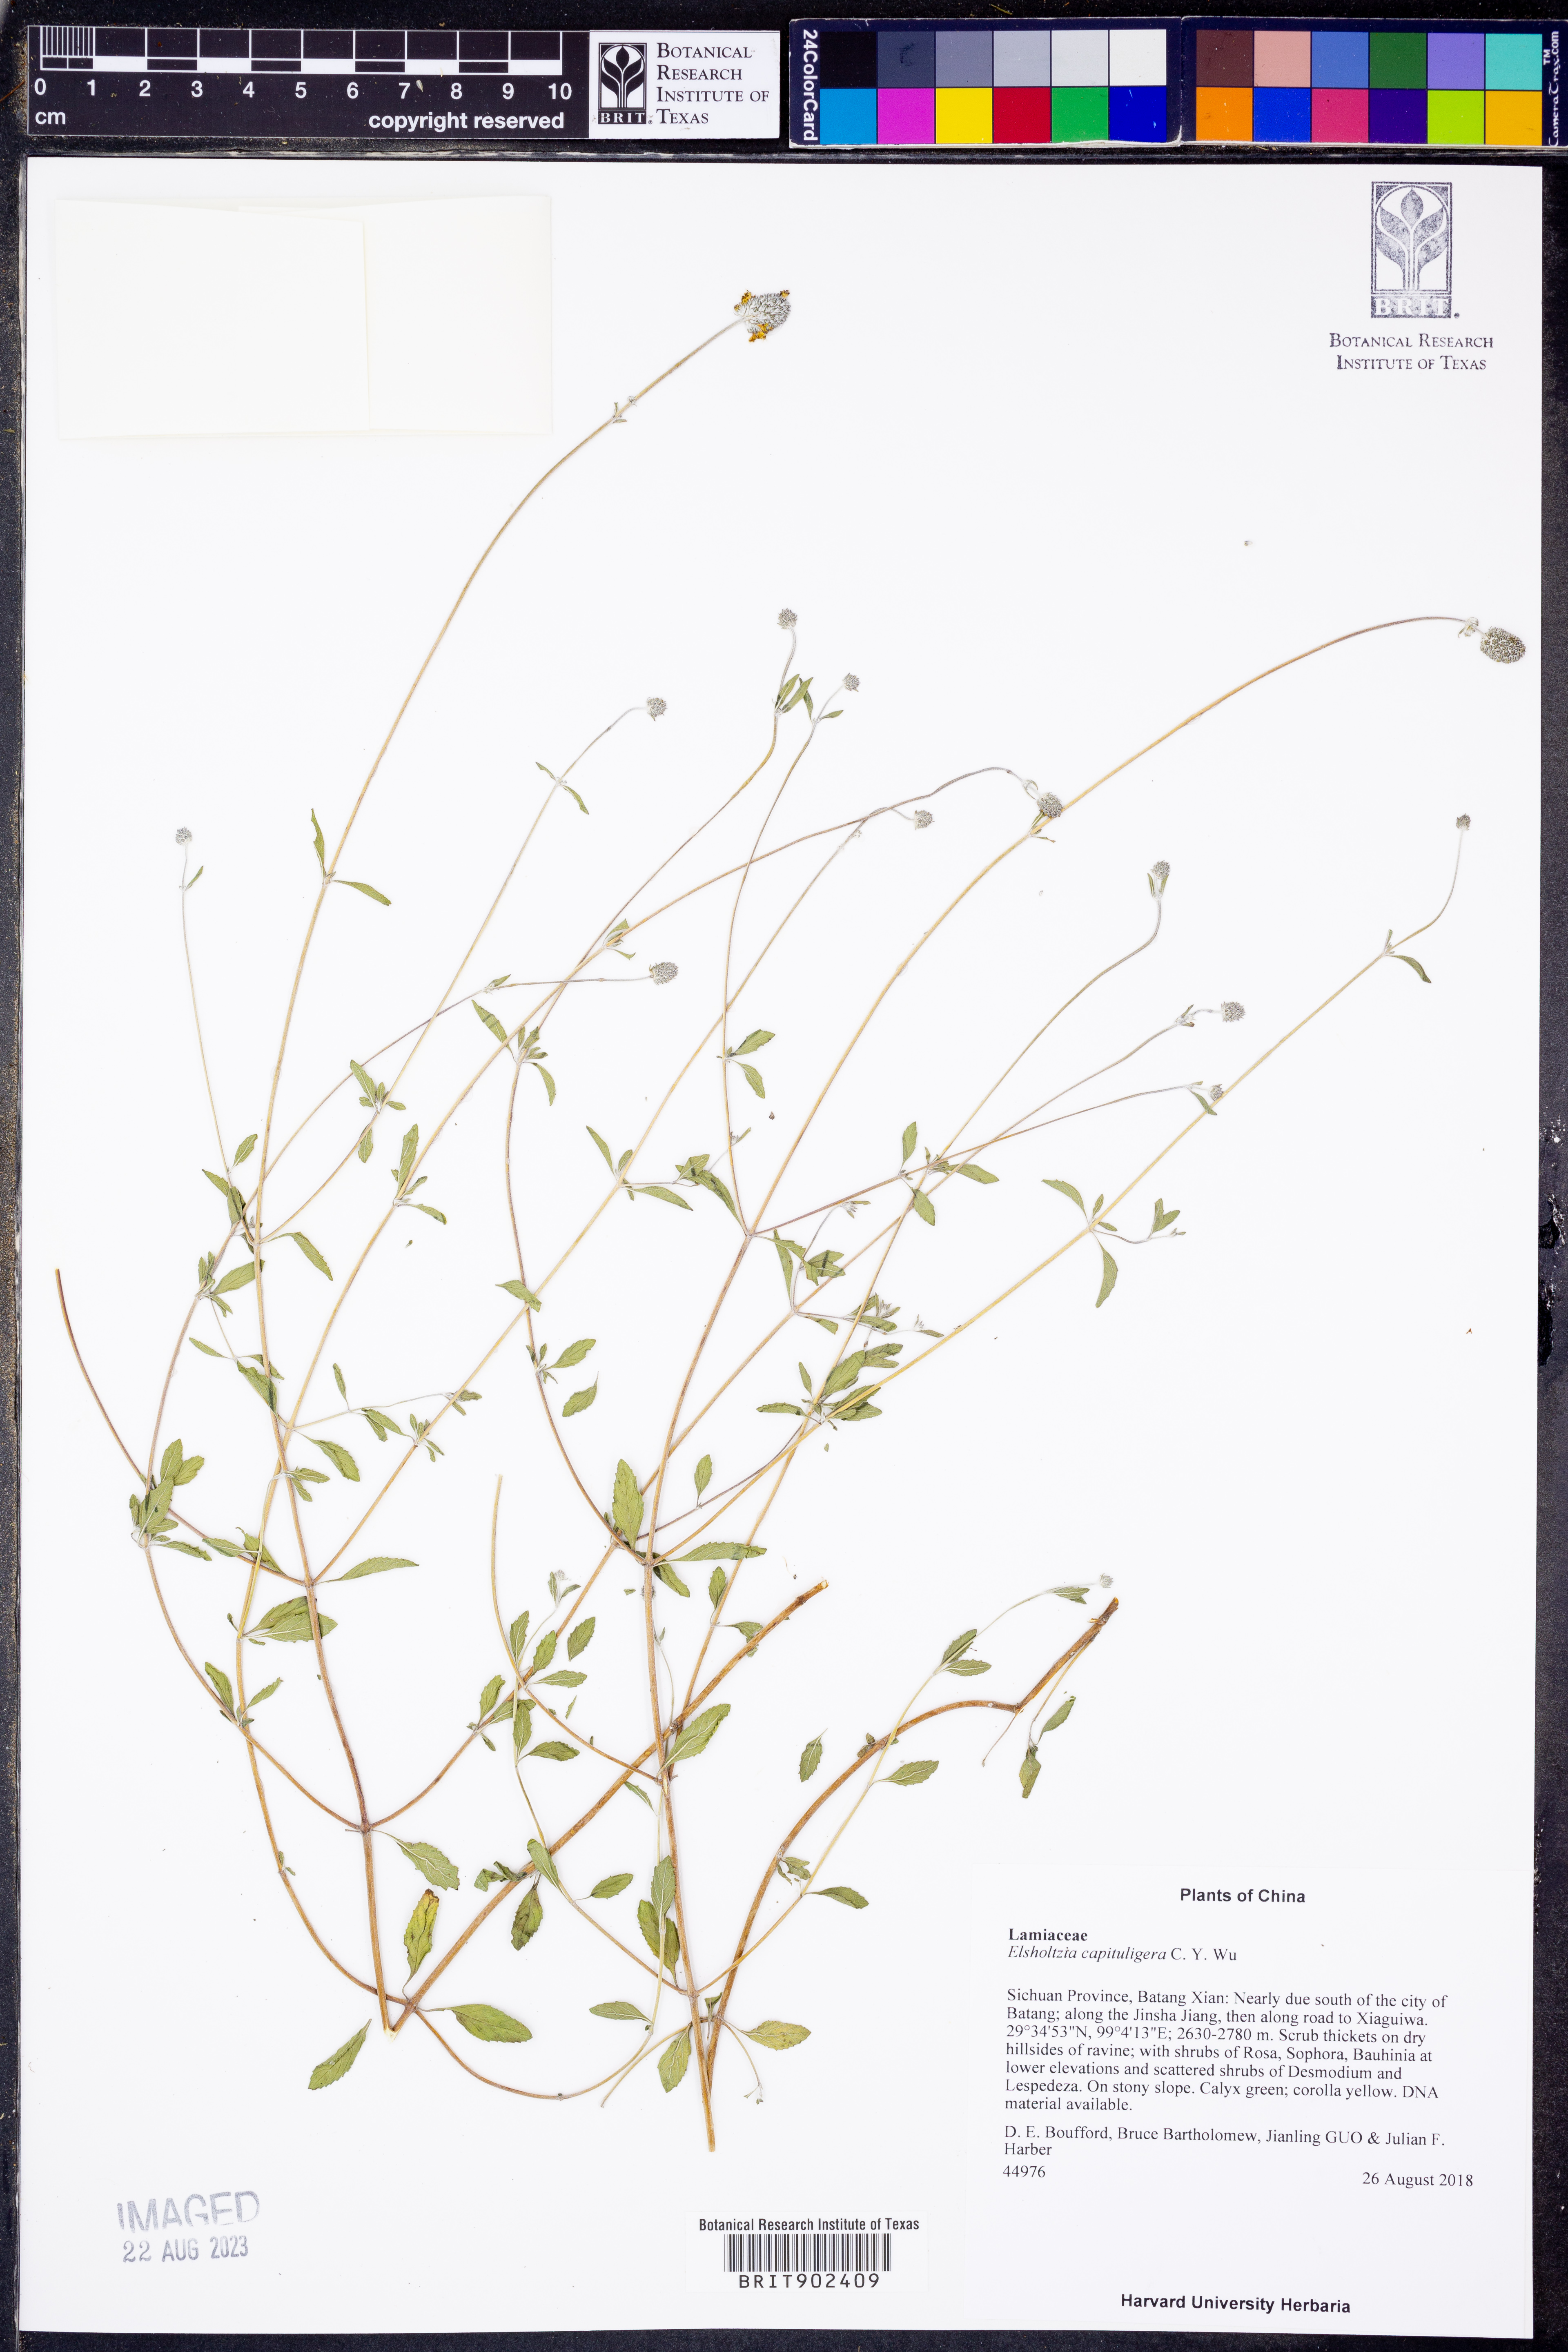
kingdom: Plantae
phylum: Tracheophyta
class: Magnoliopsida
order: Lamiales
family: Lamiaceae
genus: Elsholtzia
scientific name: Elsholtzia
